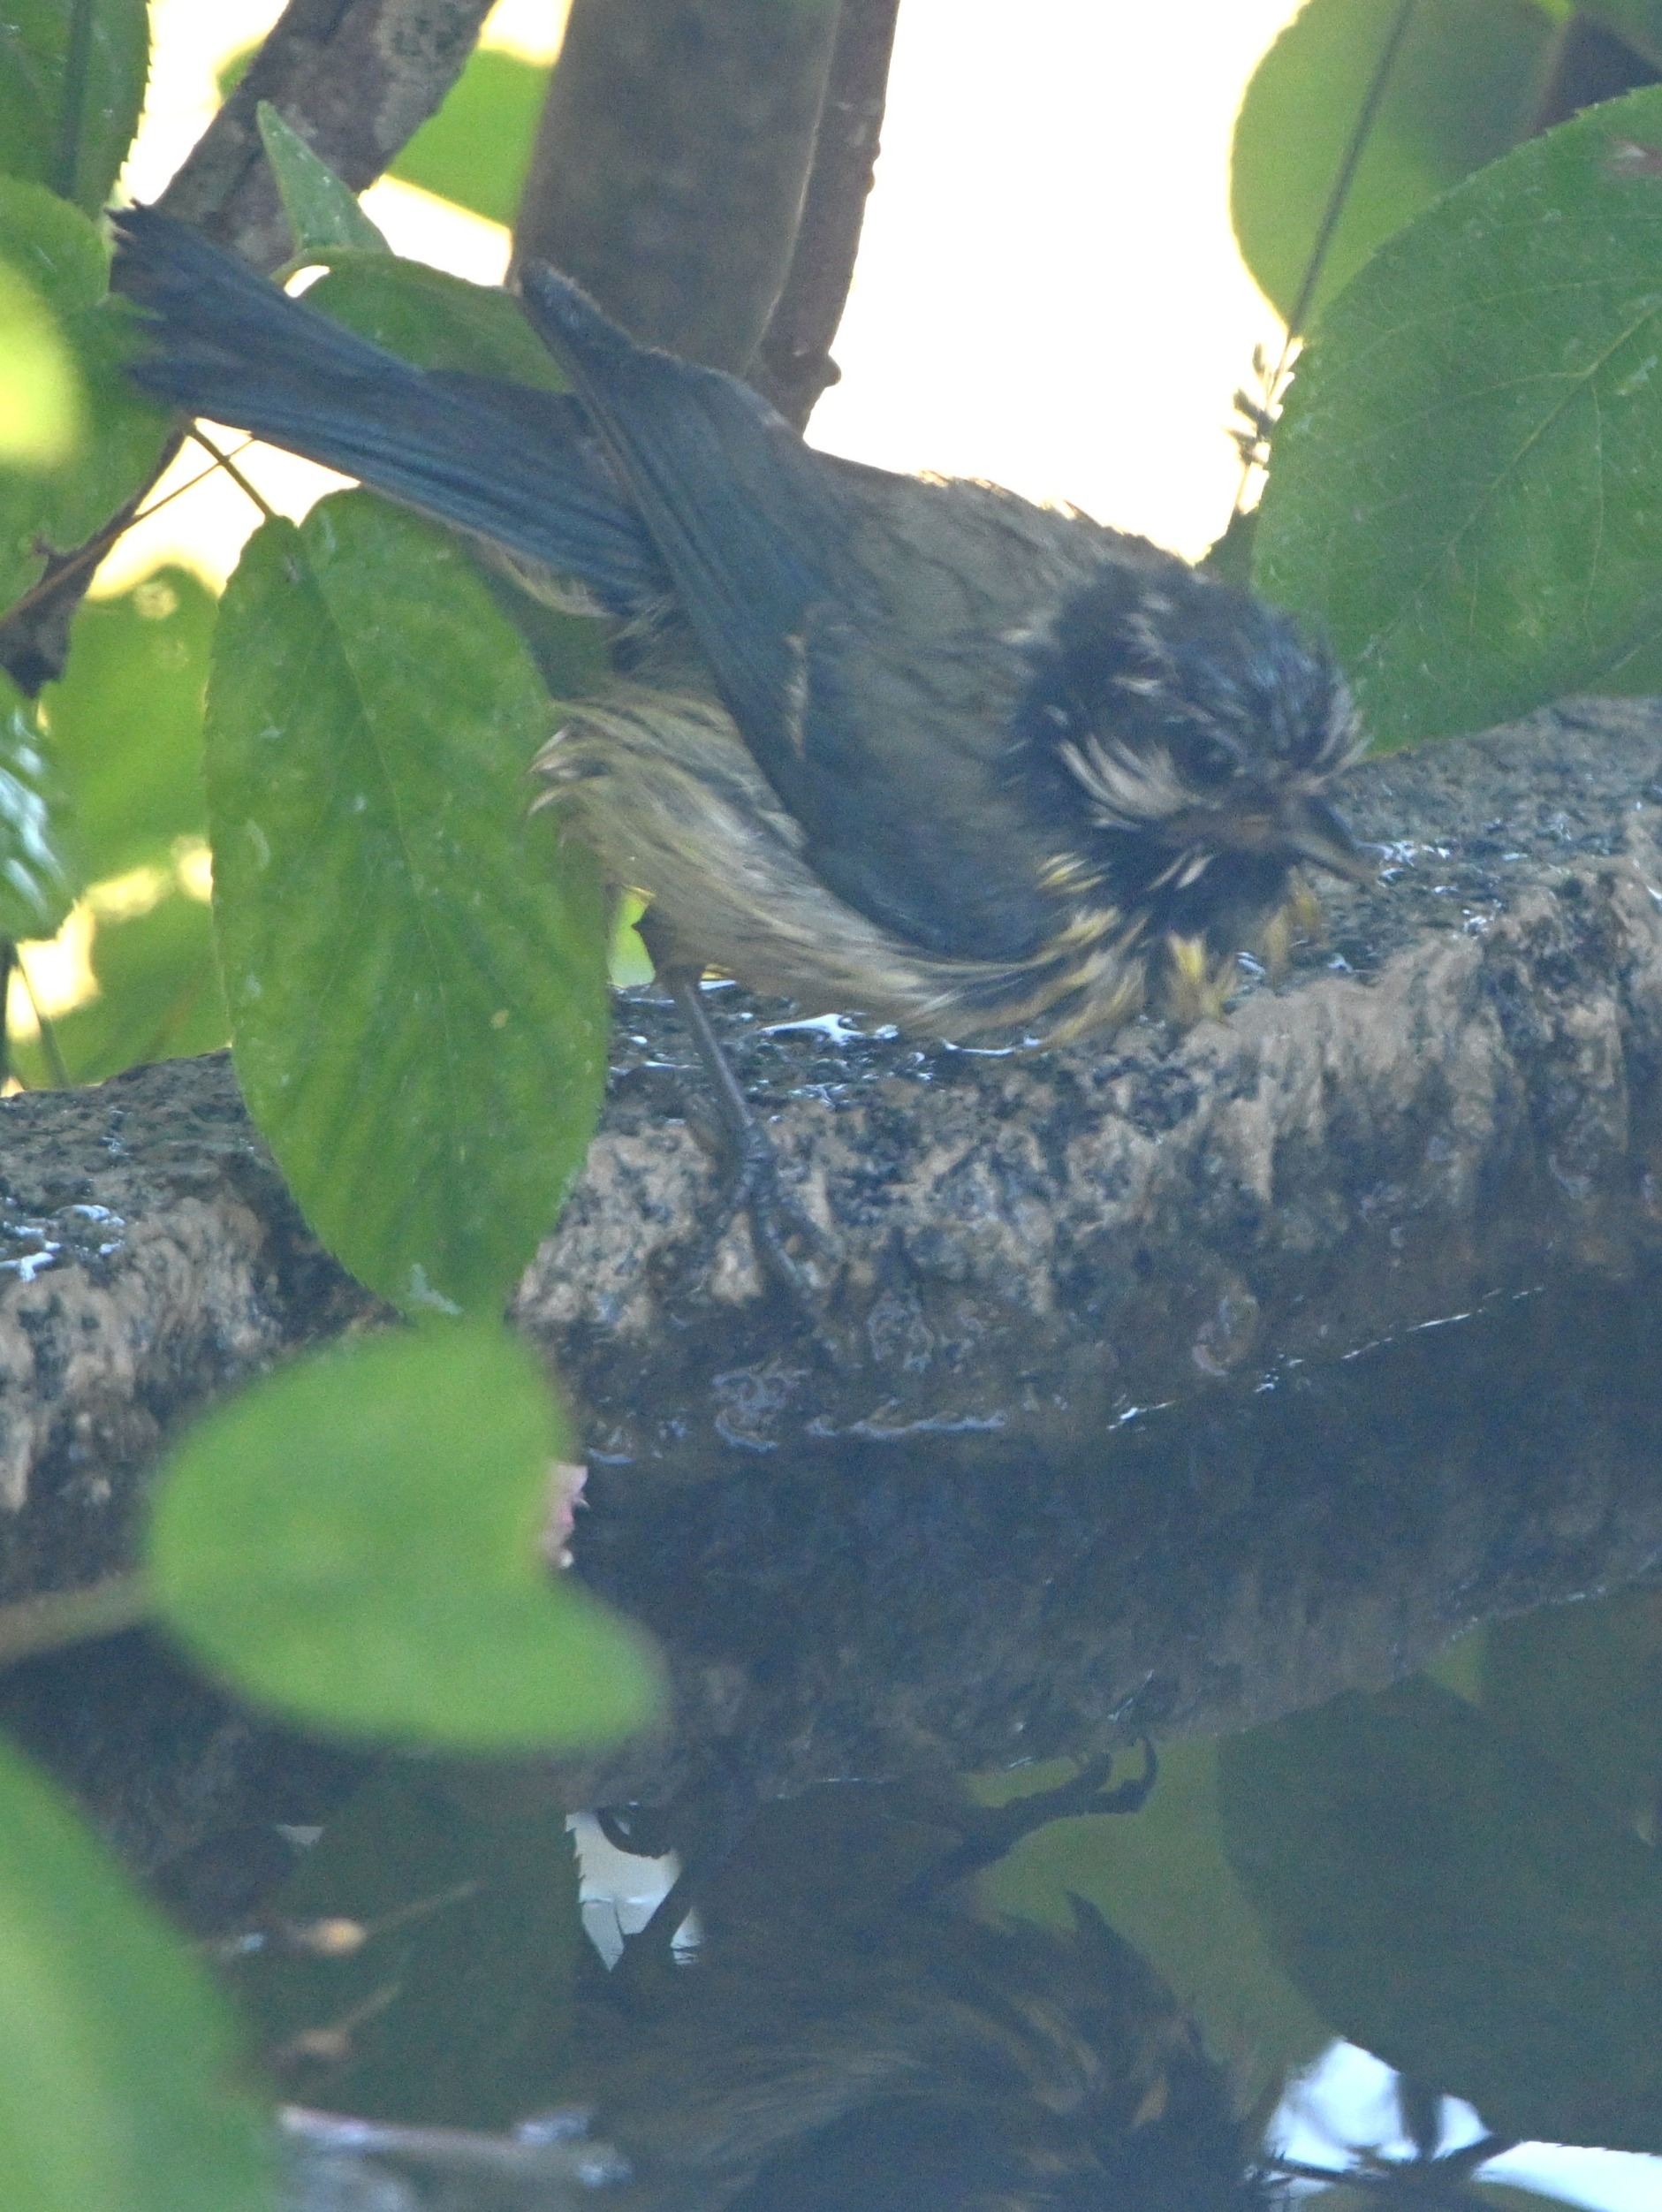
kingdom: Animalia
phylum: Chordata
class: Aves
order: Passeriformes
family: Paridae
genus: Cyanistes
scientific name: Cyanistes caeruleus
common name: Blåmejse
